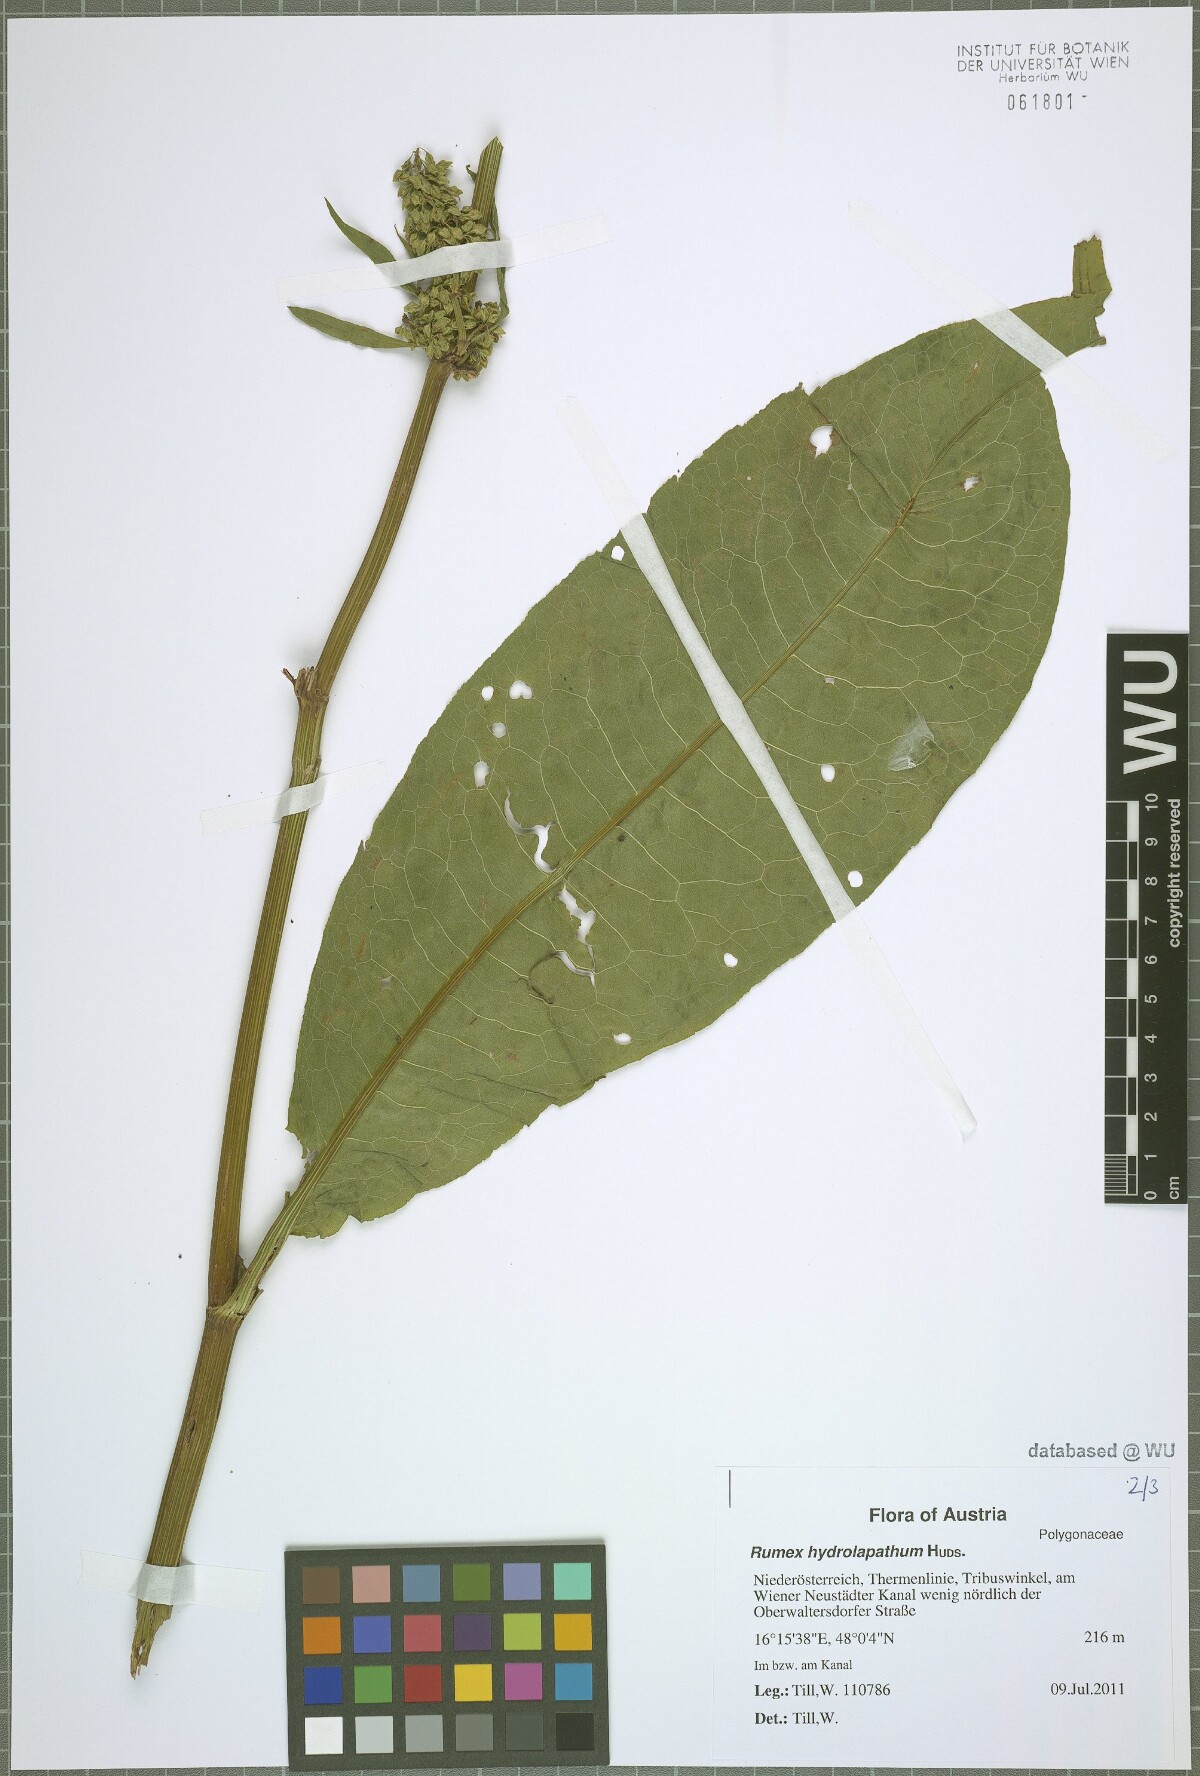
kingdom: Plantae
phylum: Tracheophyta
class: Magnoliopsida
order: Caryophyllales
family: Polygonaceae
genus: Rumex
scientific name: Rumex hydrolapathum
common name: Water dock
